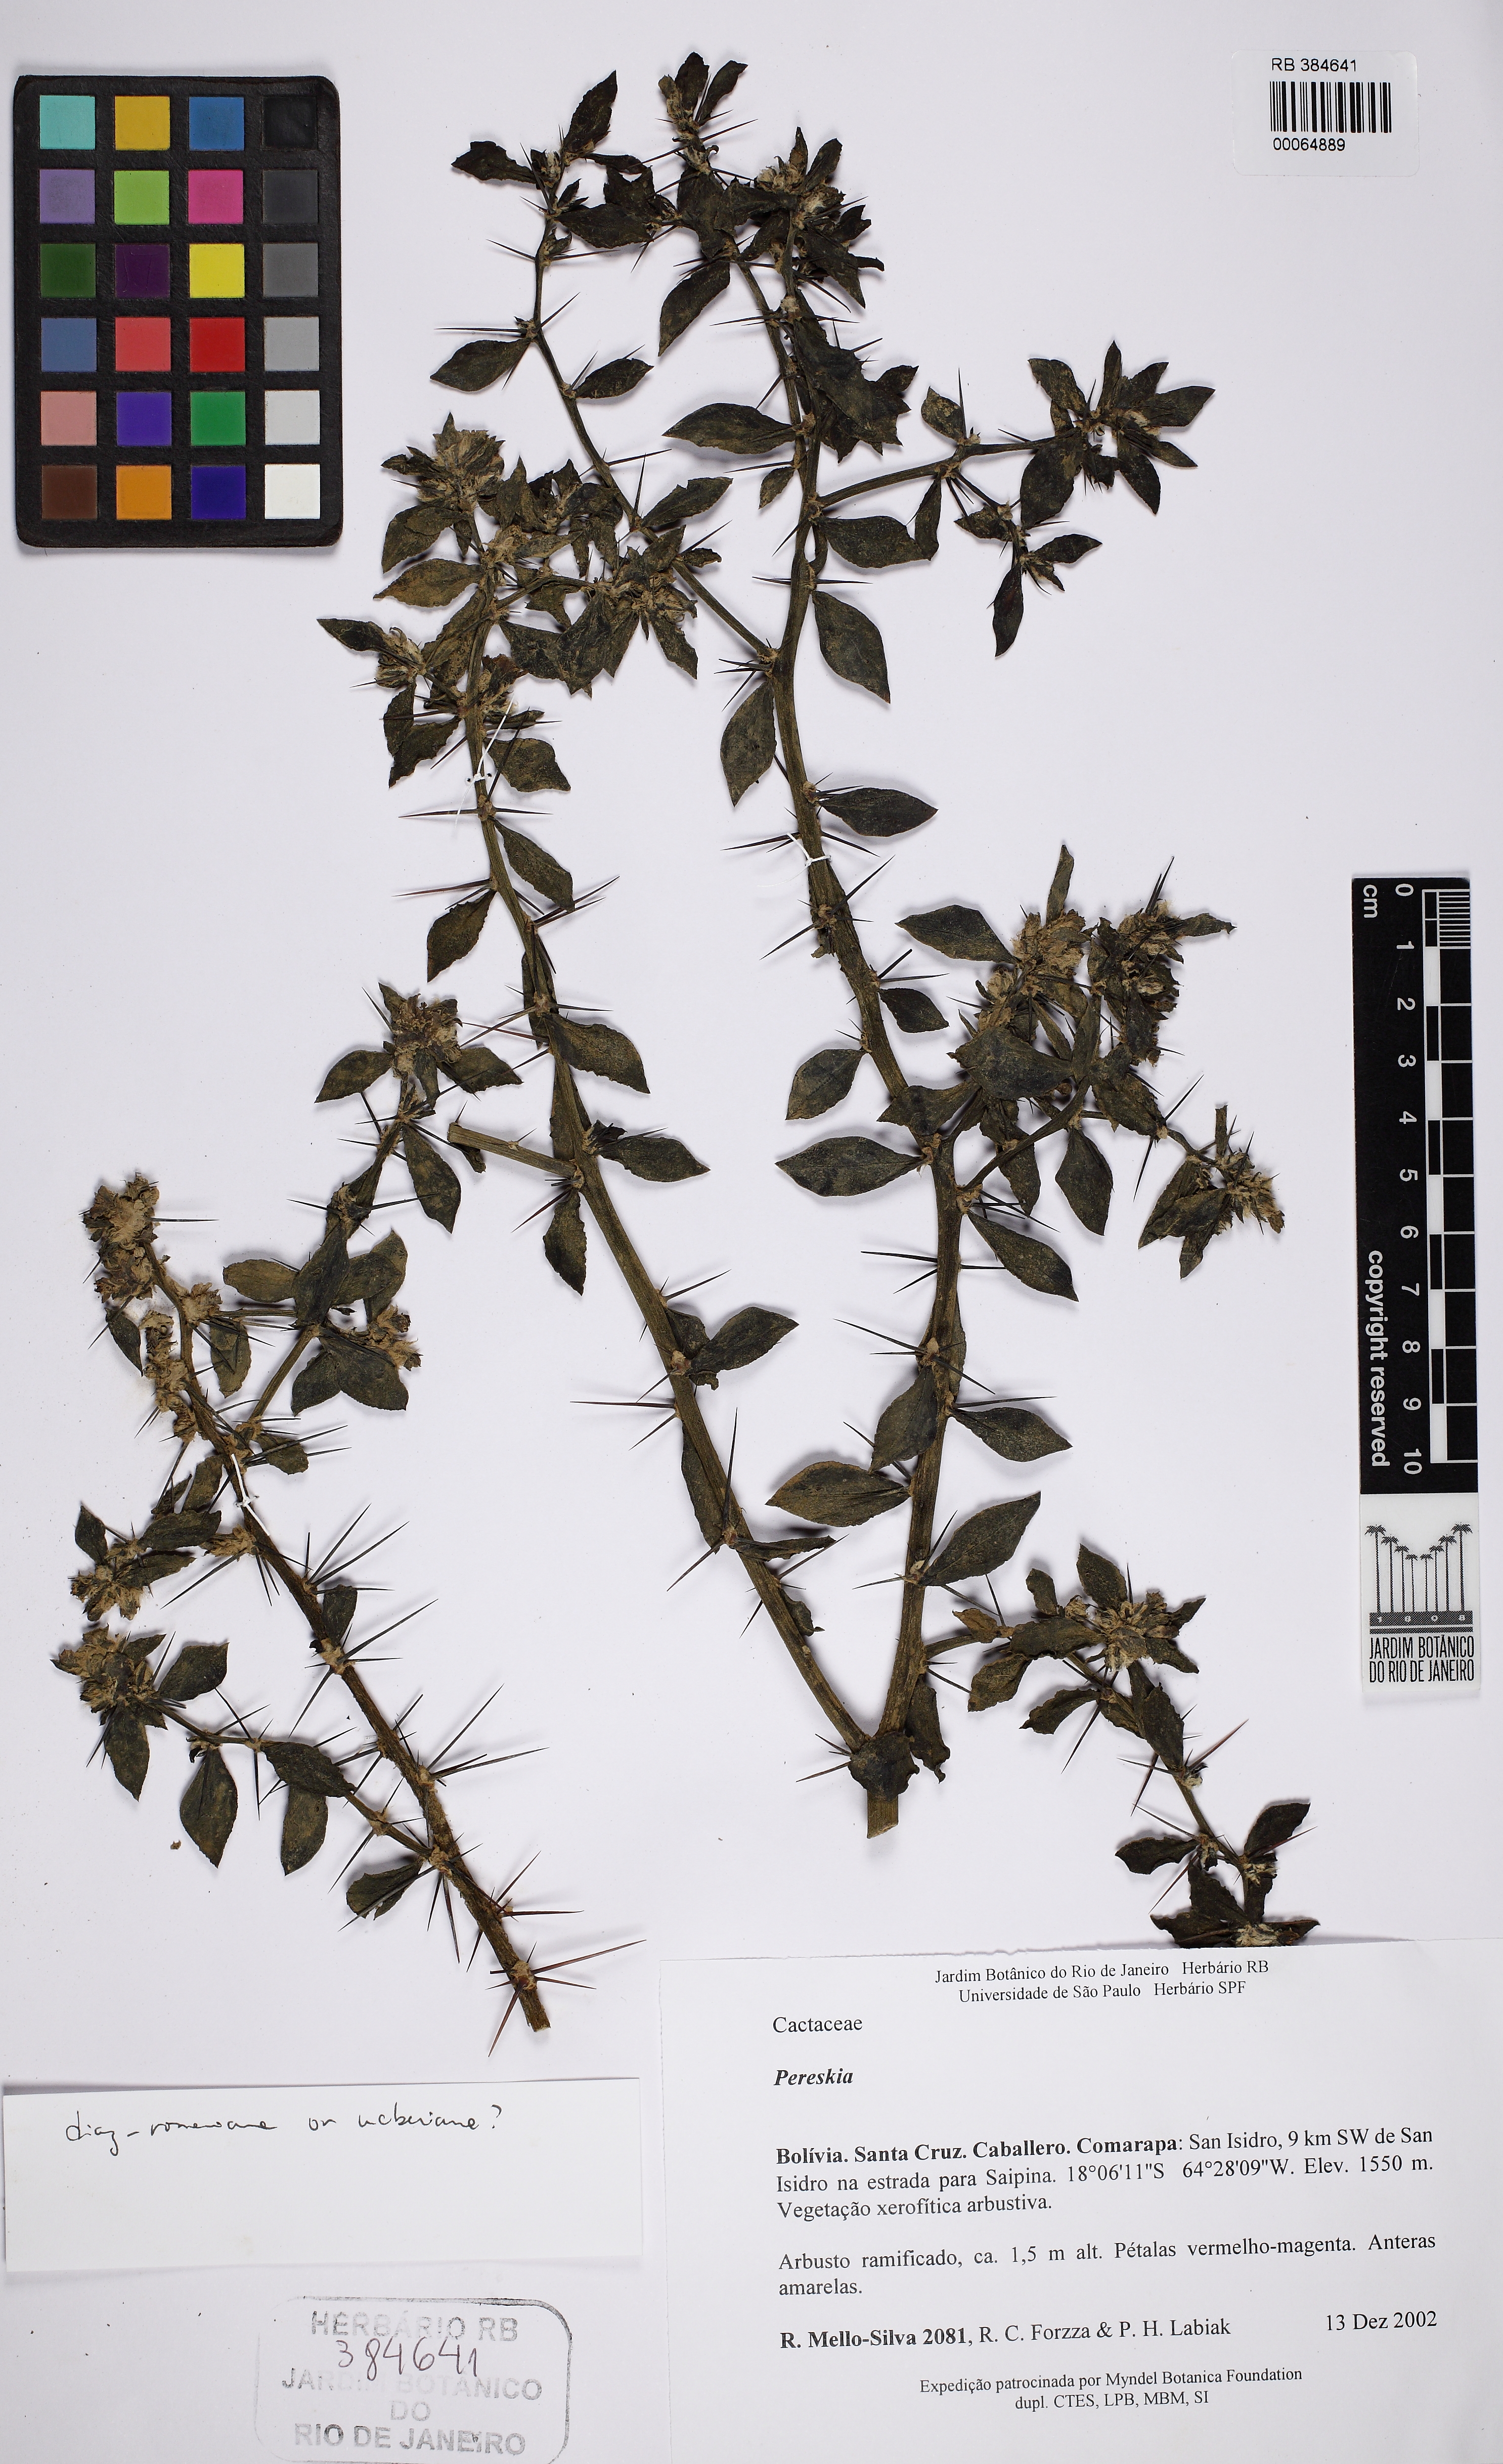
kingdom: Plantae
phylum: Tracheophyta
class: Magnoliopsida
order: Caryophyllales
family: Cactaceae
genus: Pereskia
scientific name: Pereskia diaz-romeroana
